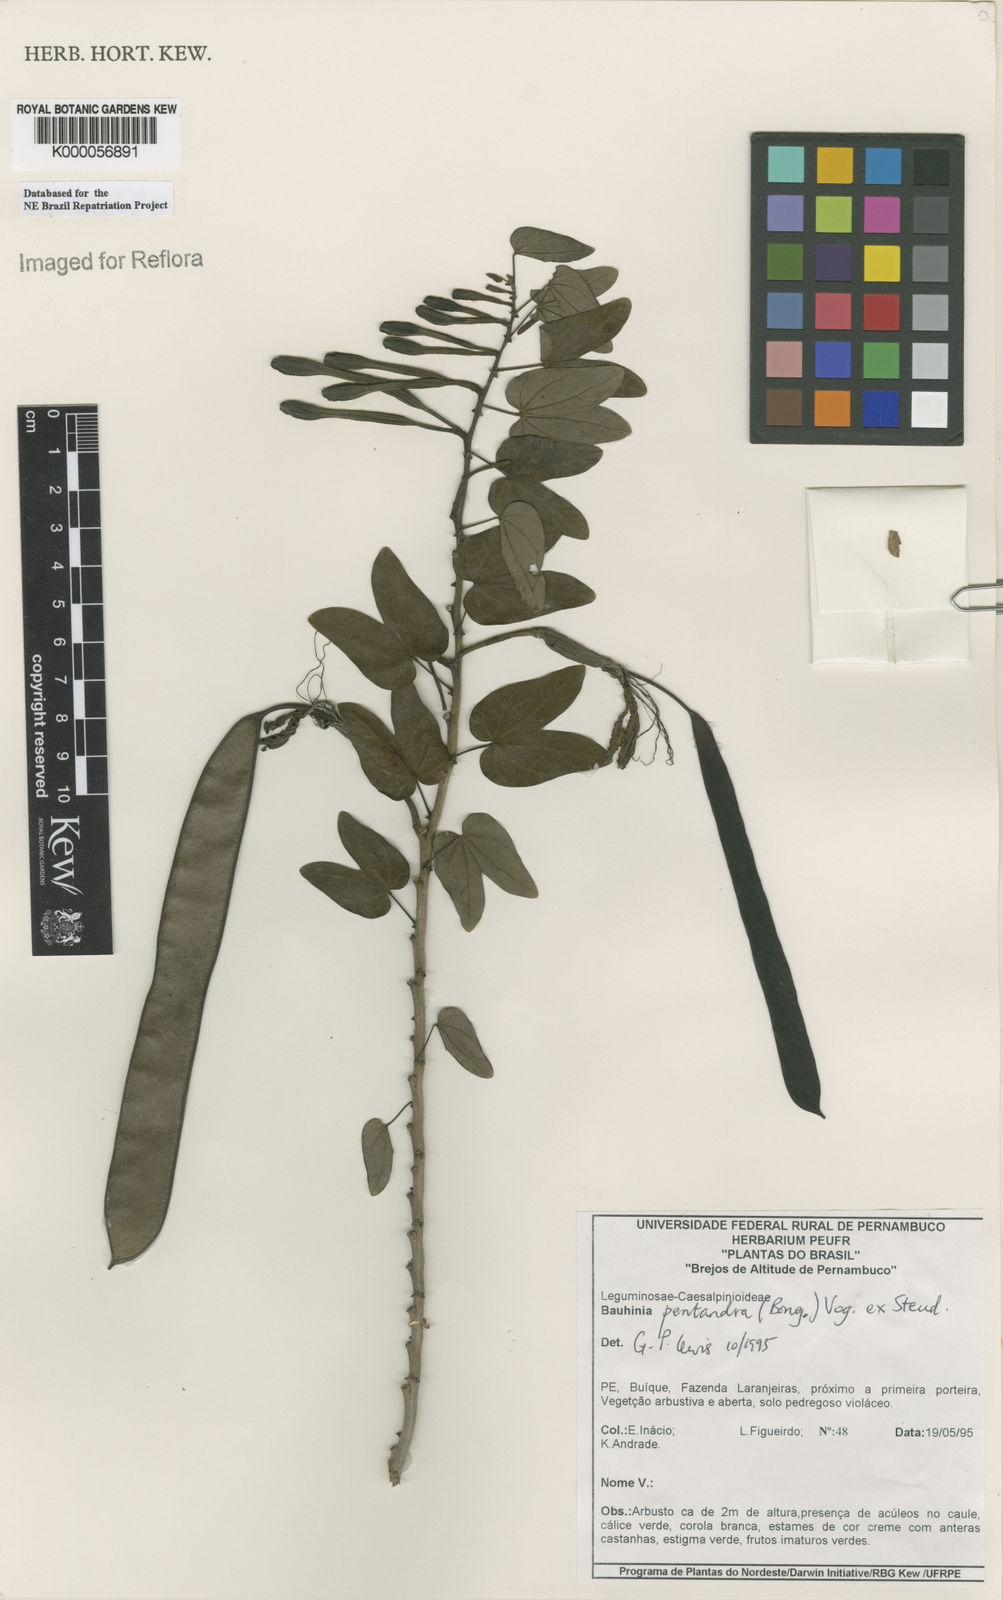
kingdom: Plantae
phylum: Tracheophyta
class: Magnoliopsida
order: Fabales
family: Fabaceae
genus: Bauhinia
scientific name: Bauhinia
